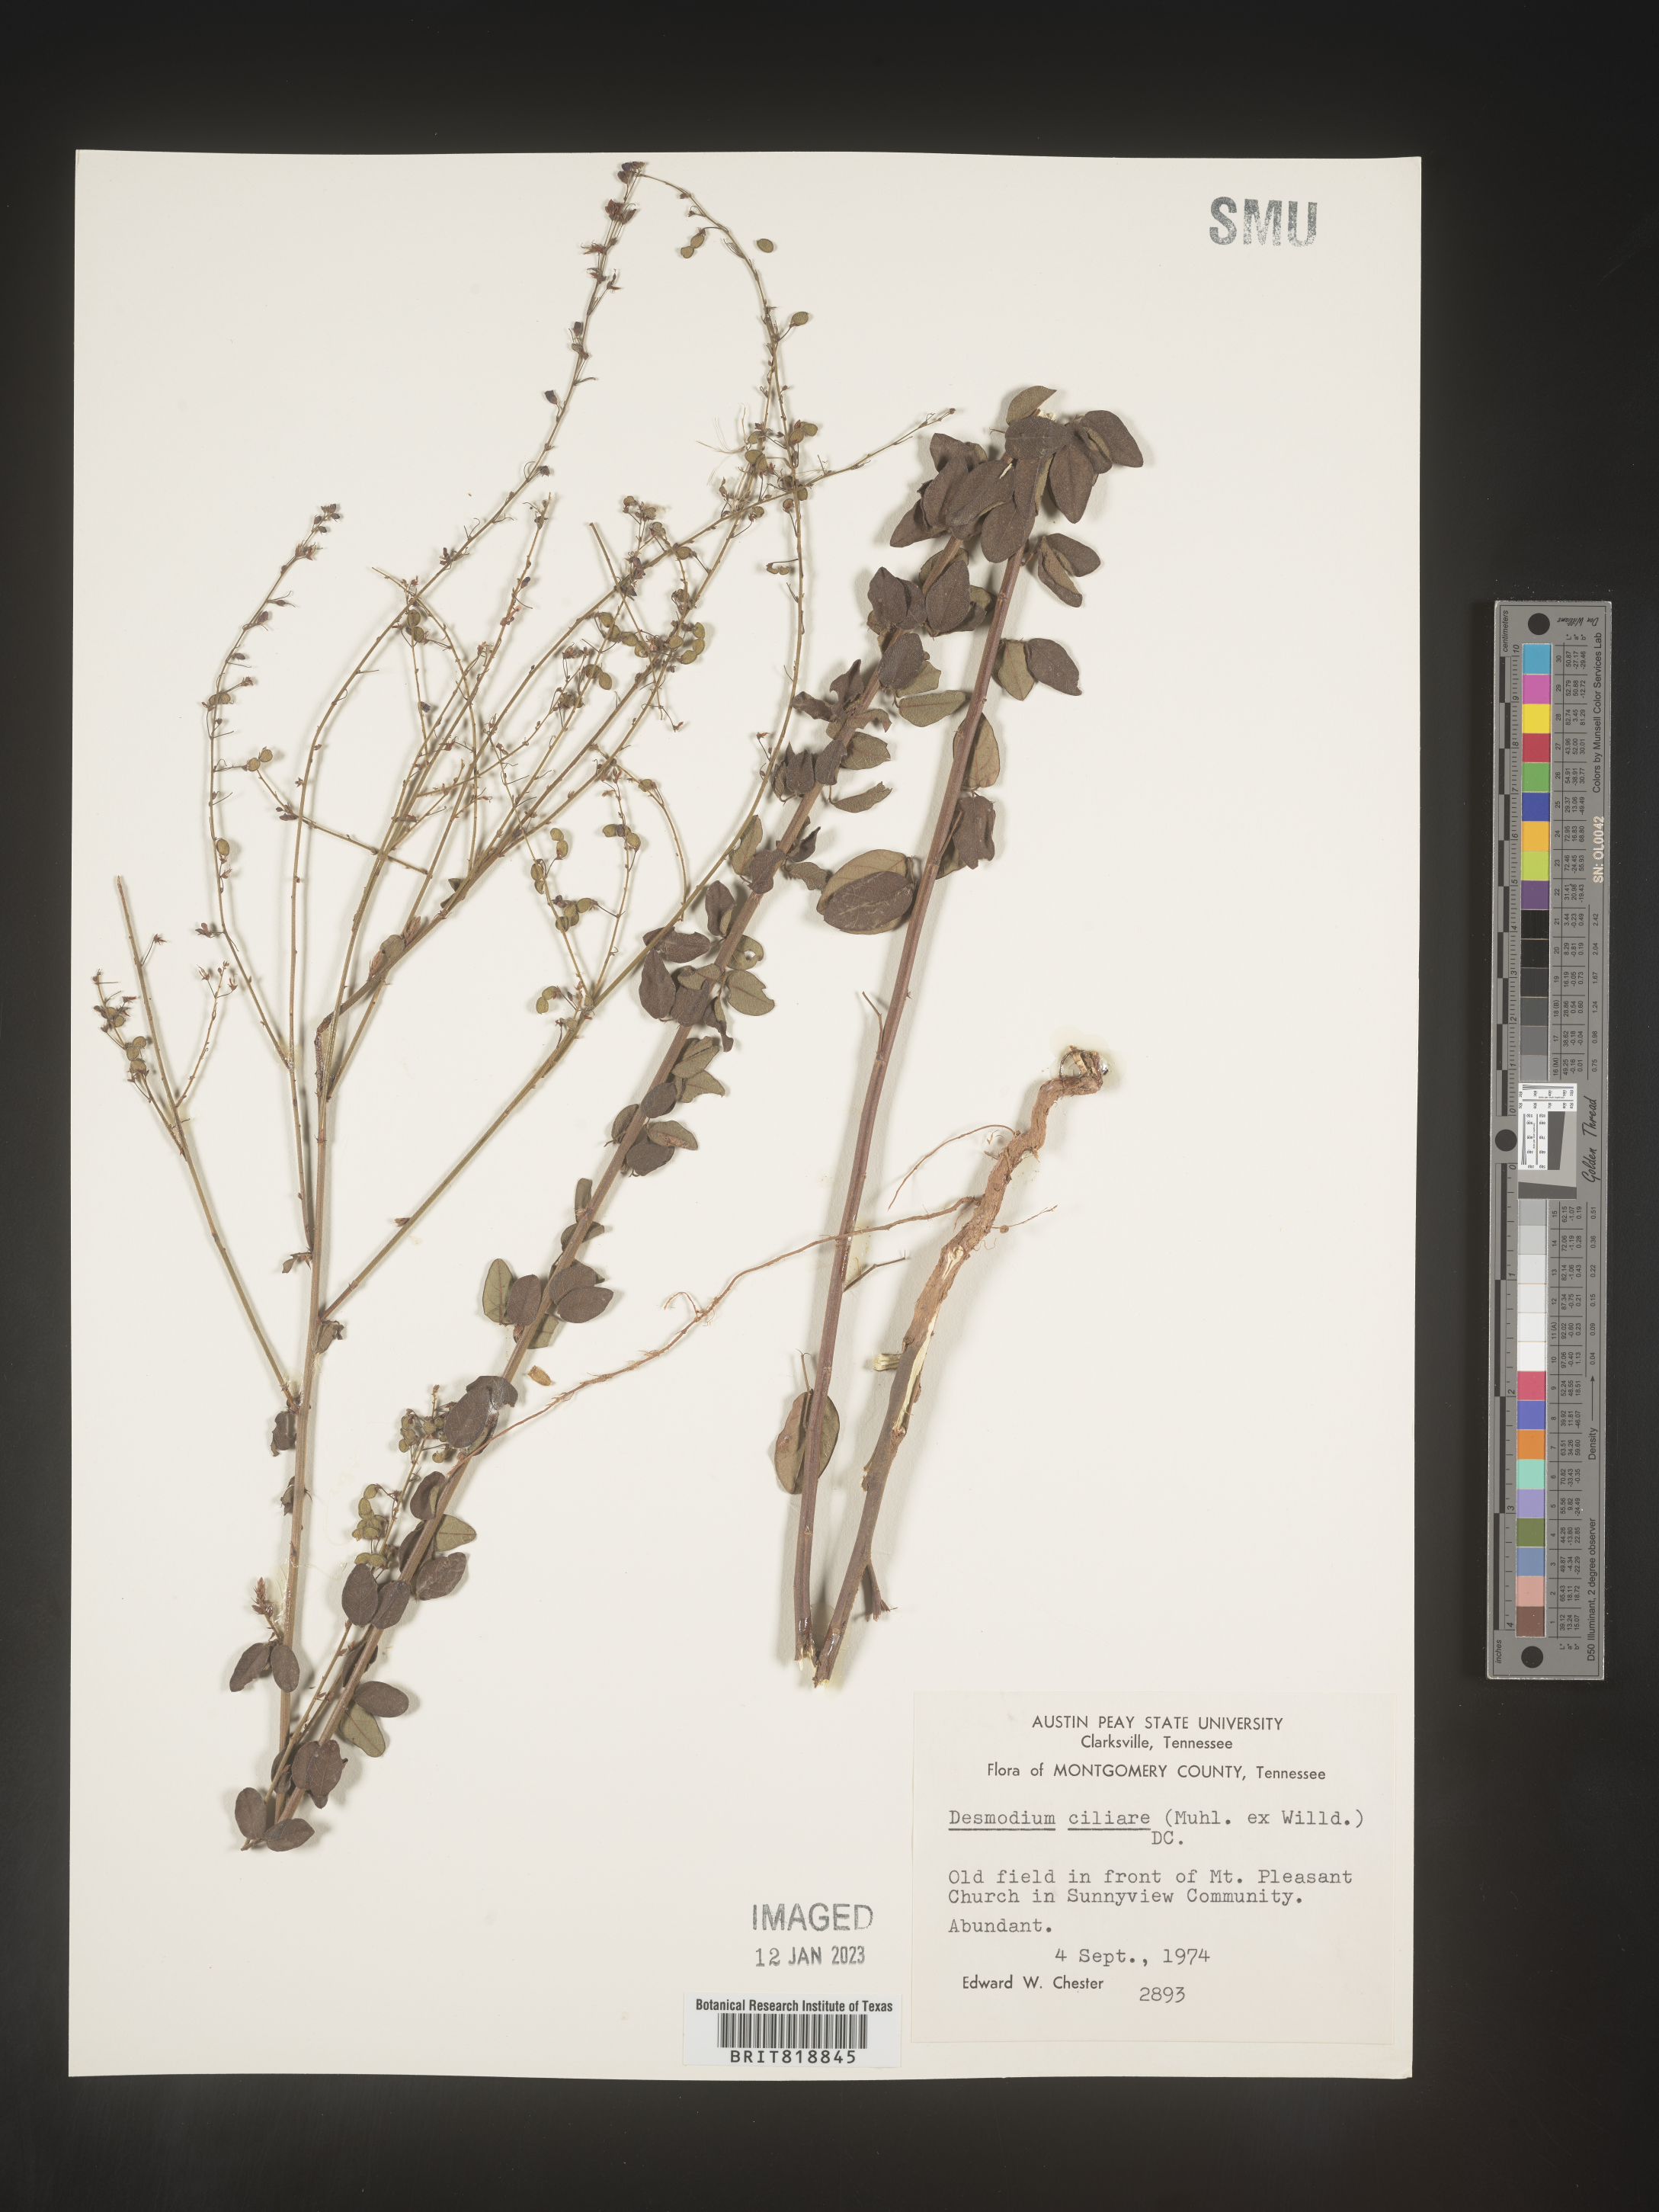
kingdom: Plantae
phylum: Tracheophyta
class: Magnoliopsida
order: Fabales
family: Fabaceae
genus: Desmodium
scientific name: Desmodium ciliare
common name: Hairy small-leaf ticktrefoil
